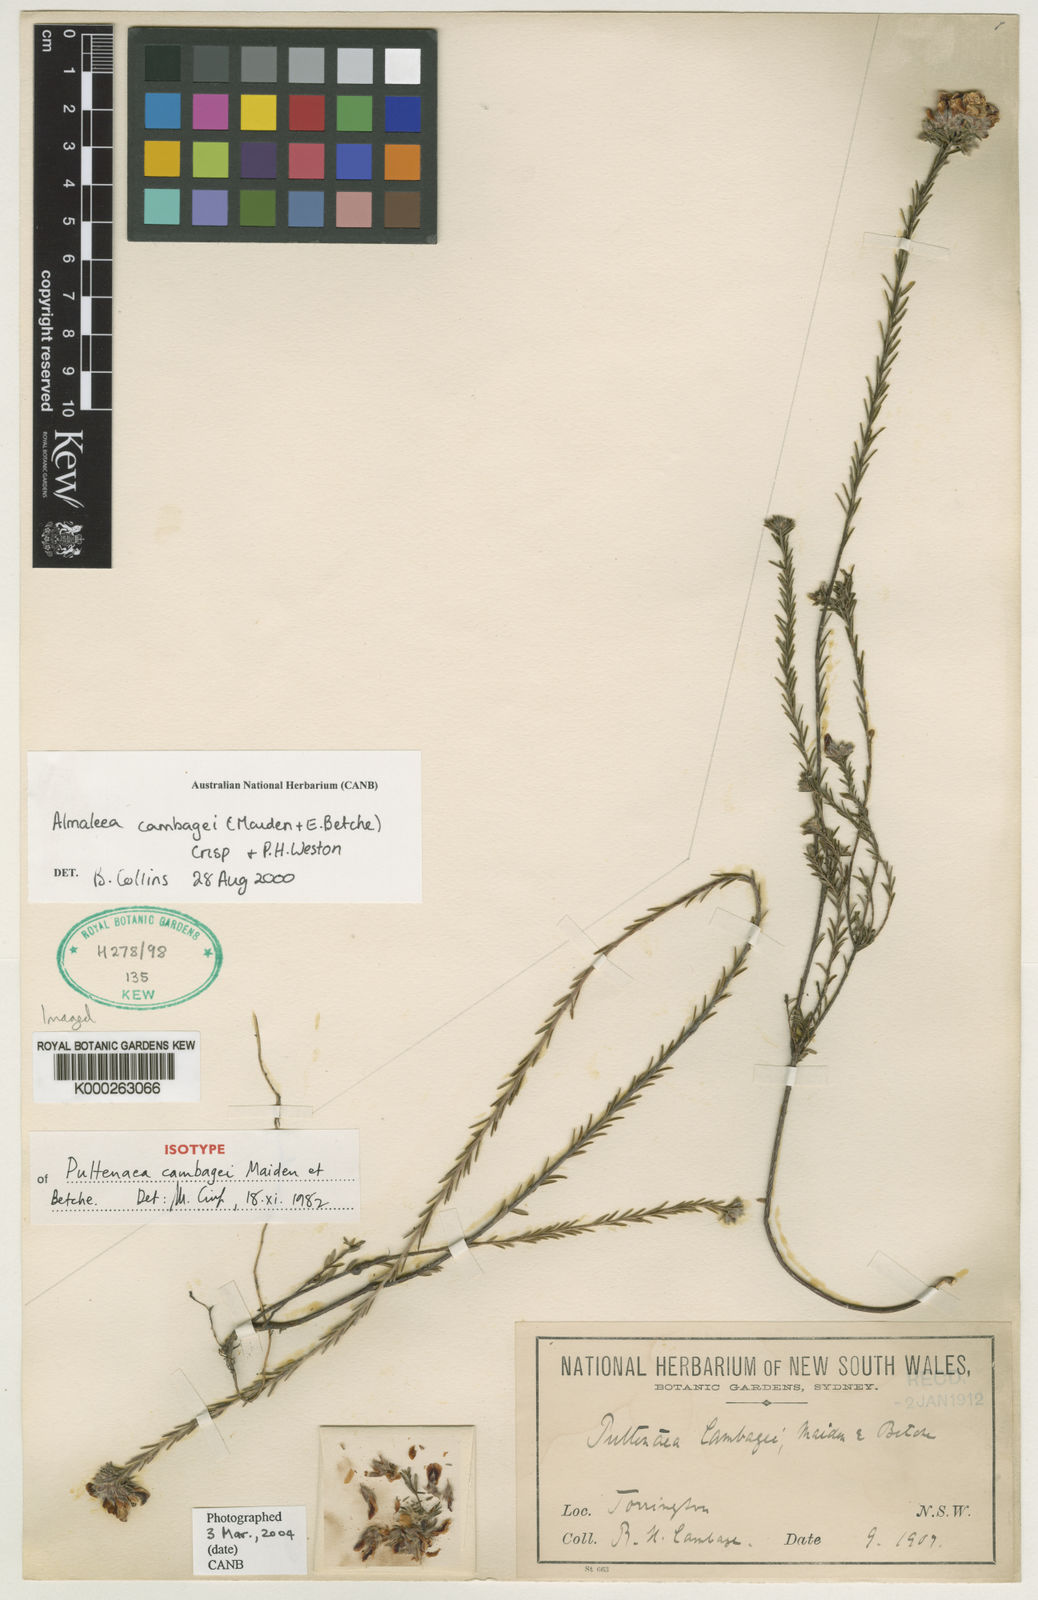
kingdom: Plantae
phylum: Tracheophyta
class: Magnoliopsida
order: Fabales
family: Fabaceae
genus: Almaleea
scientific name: Almaleea cambagei
